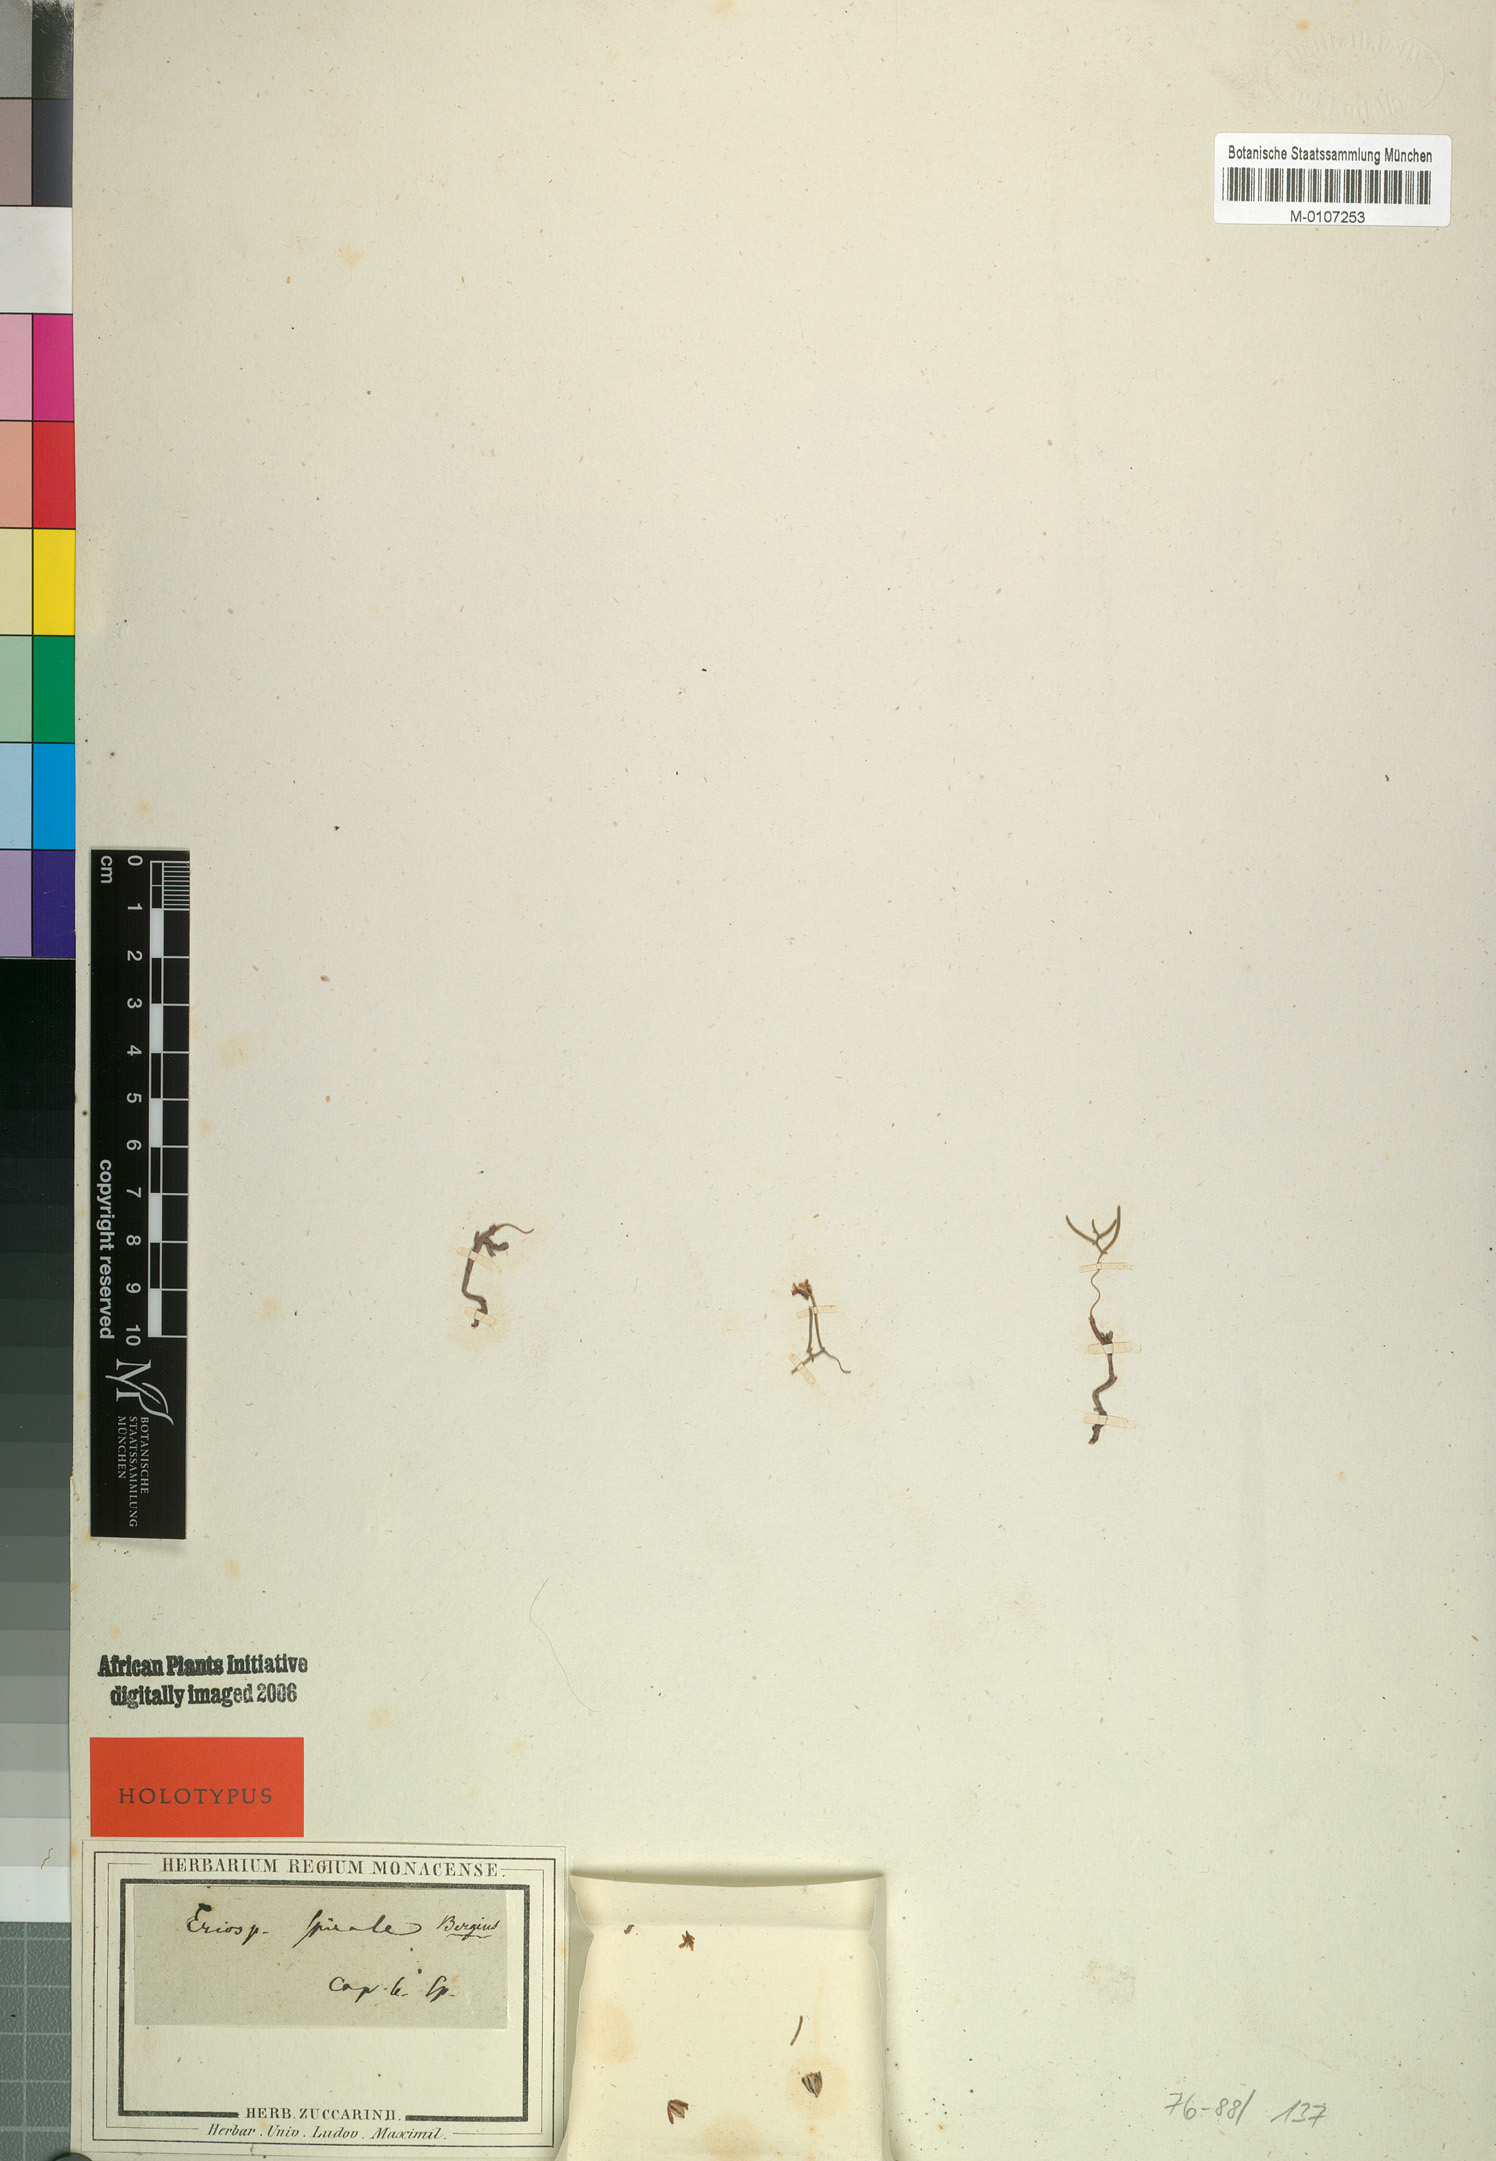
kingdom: Plantae
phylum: Tracheophyta
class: Liliopsida
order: Asparagales
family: Asparagaceae
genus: Eriospermum
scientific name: Eriospermum spirale
